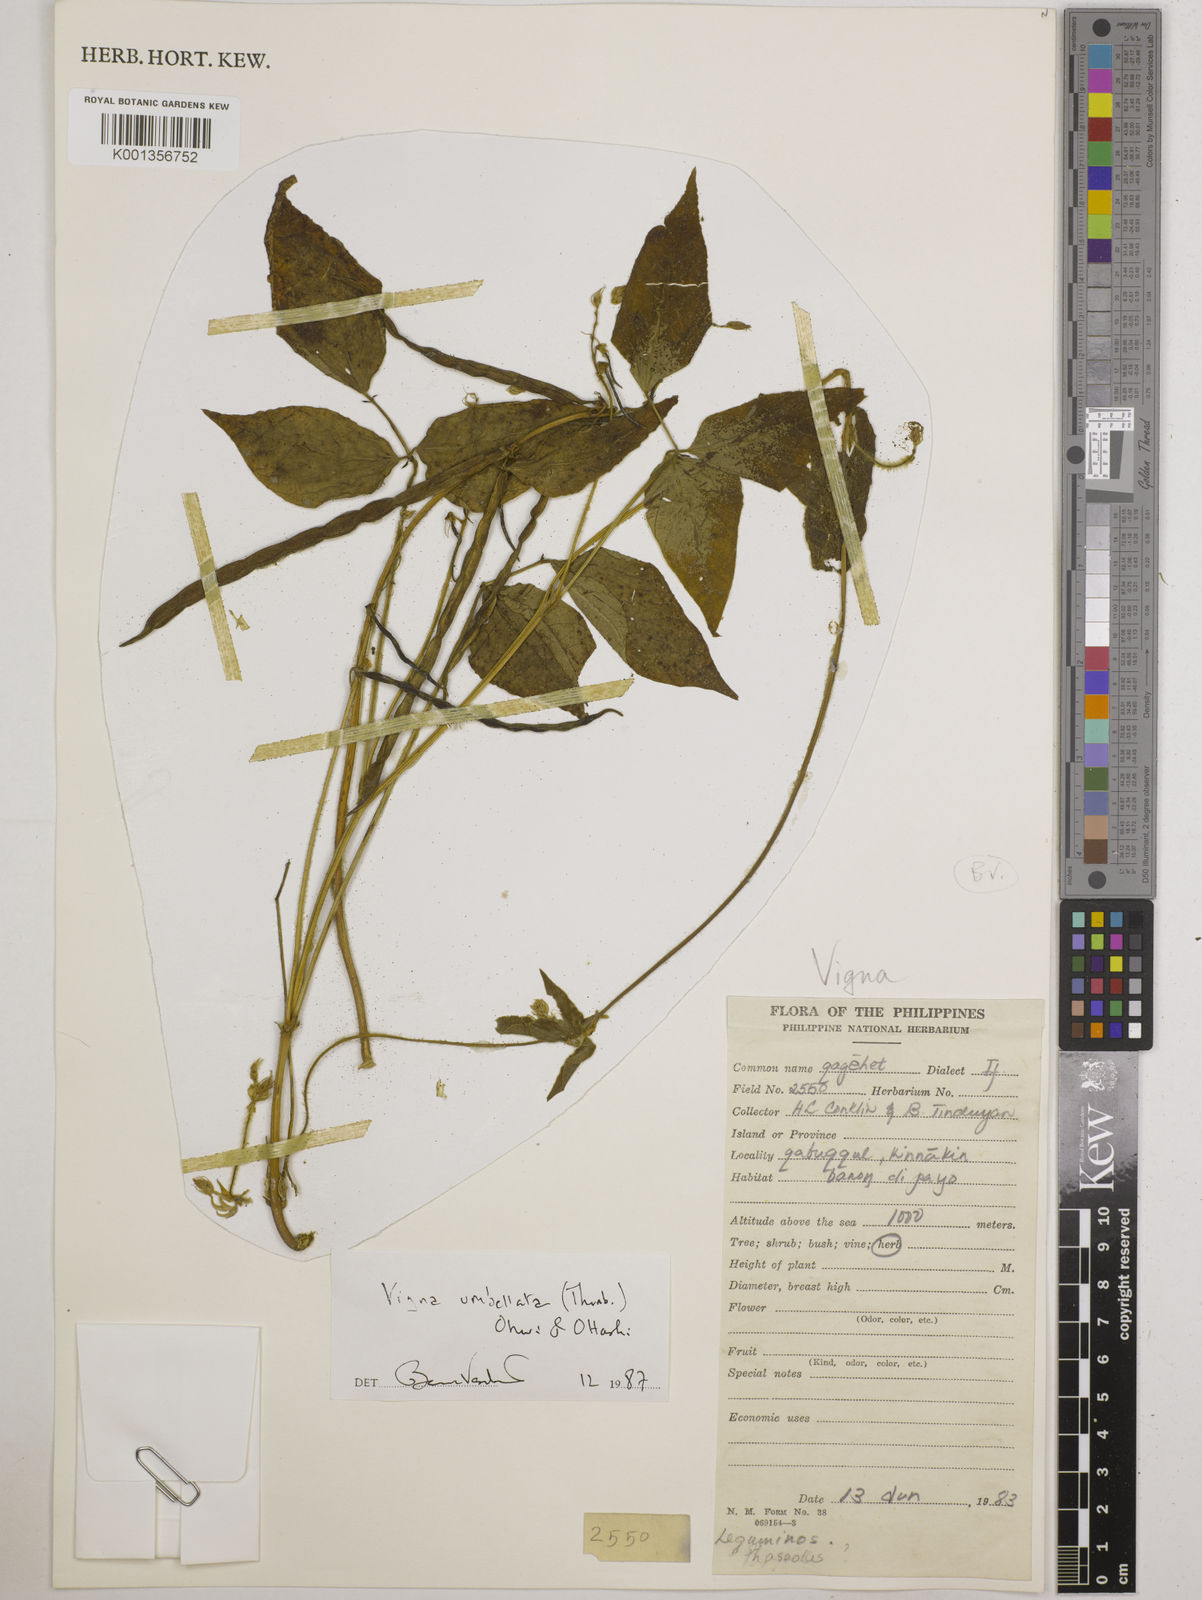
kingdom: Plantae
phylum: Tracheophyta
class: Magnoliopsida
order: Fabales
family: Fabaceae
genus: Vigna
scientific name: Vigna umbellata
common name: Oriental-bean
